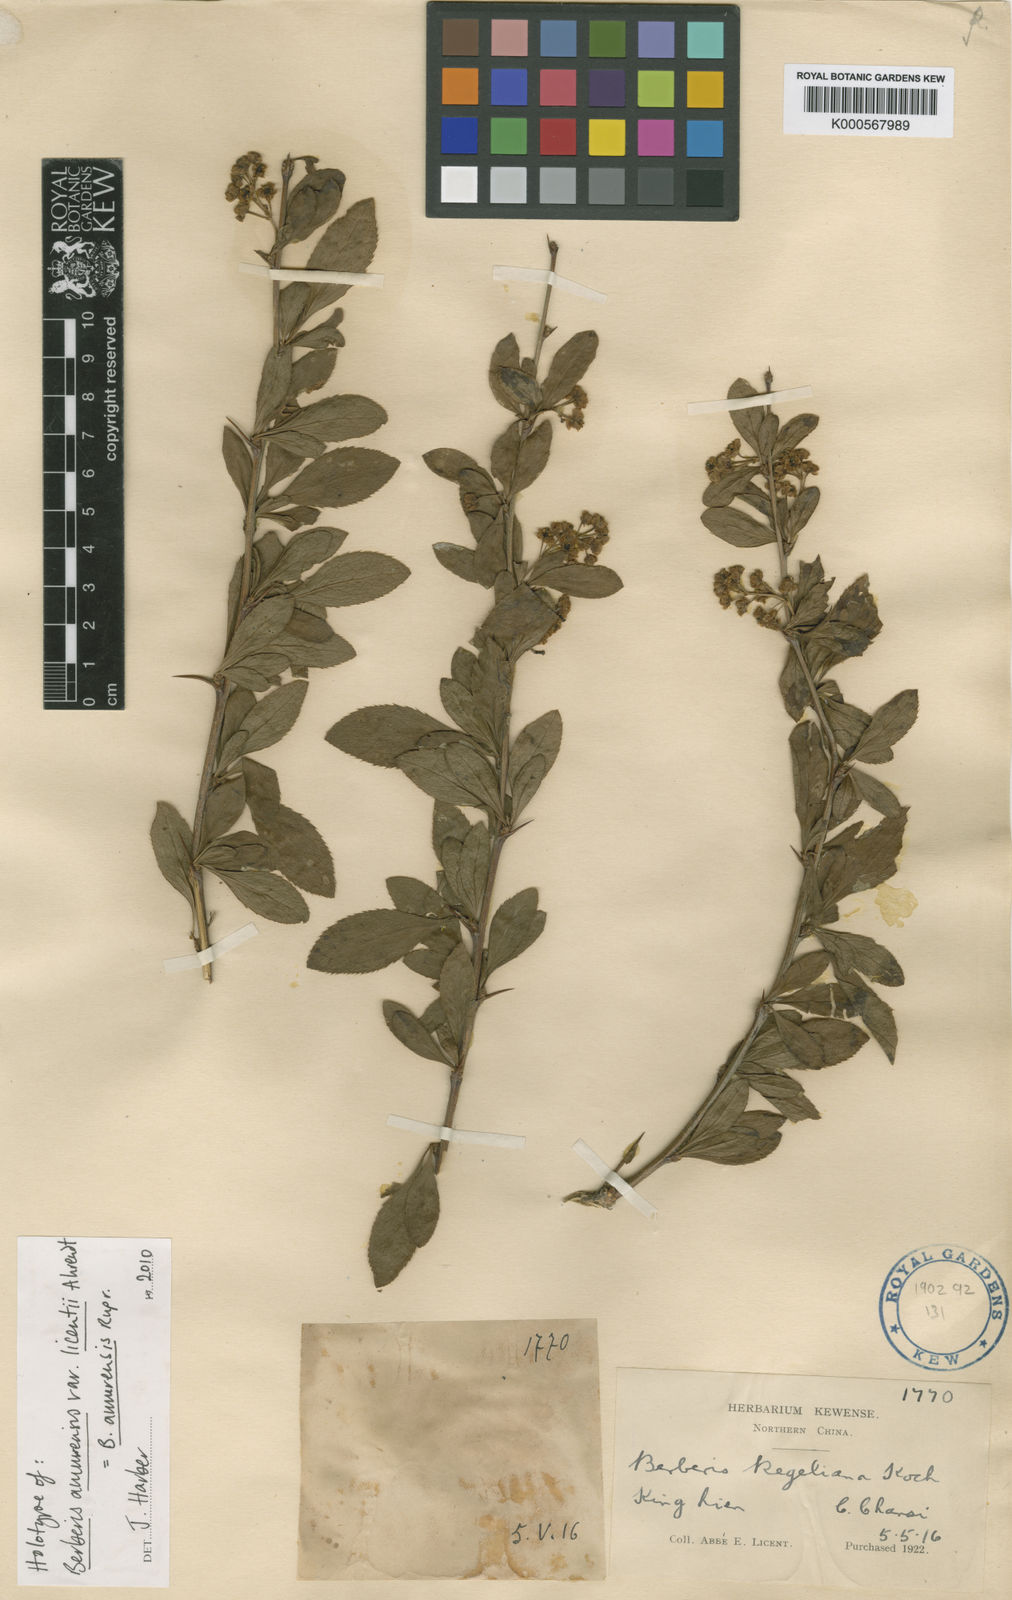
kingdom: Plantae
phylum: Tracheophyta
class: Magnoliopsida
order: Ranunculales
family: Berberidaceae
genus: Berberis
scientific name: Berberis amurensis
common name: Amur barberry
